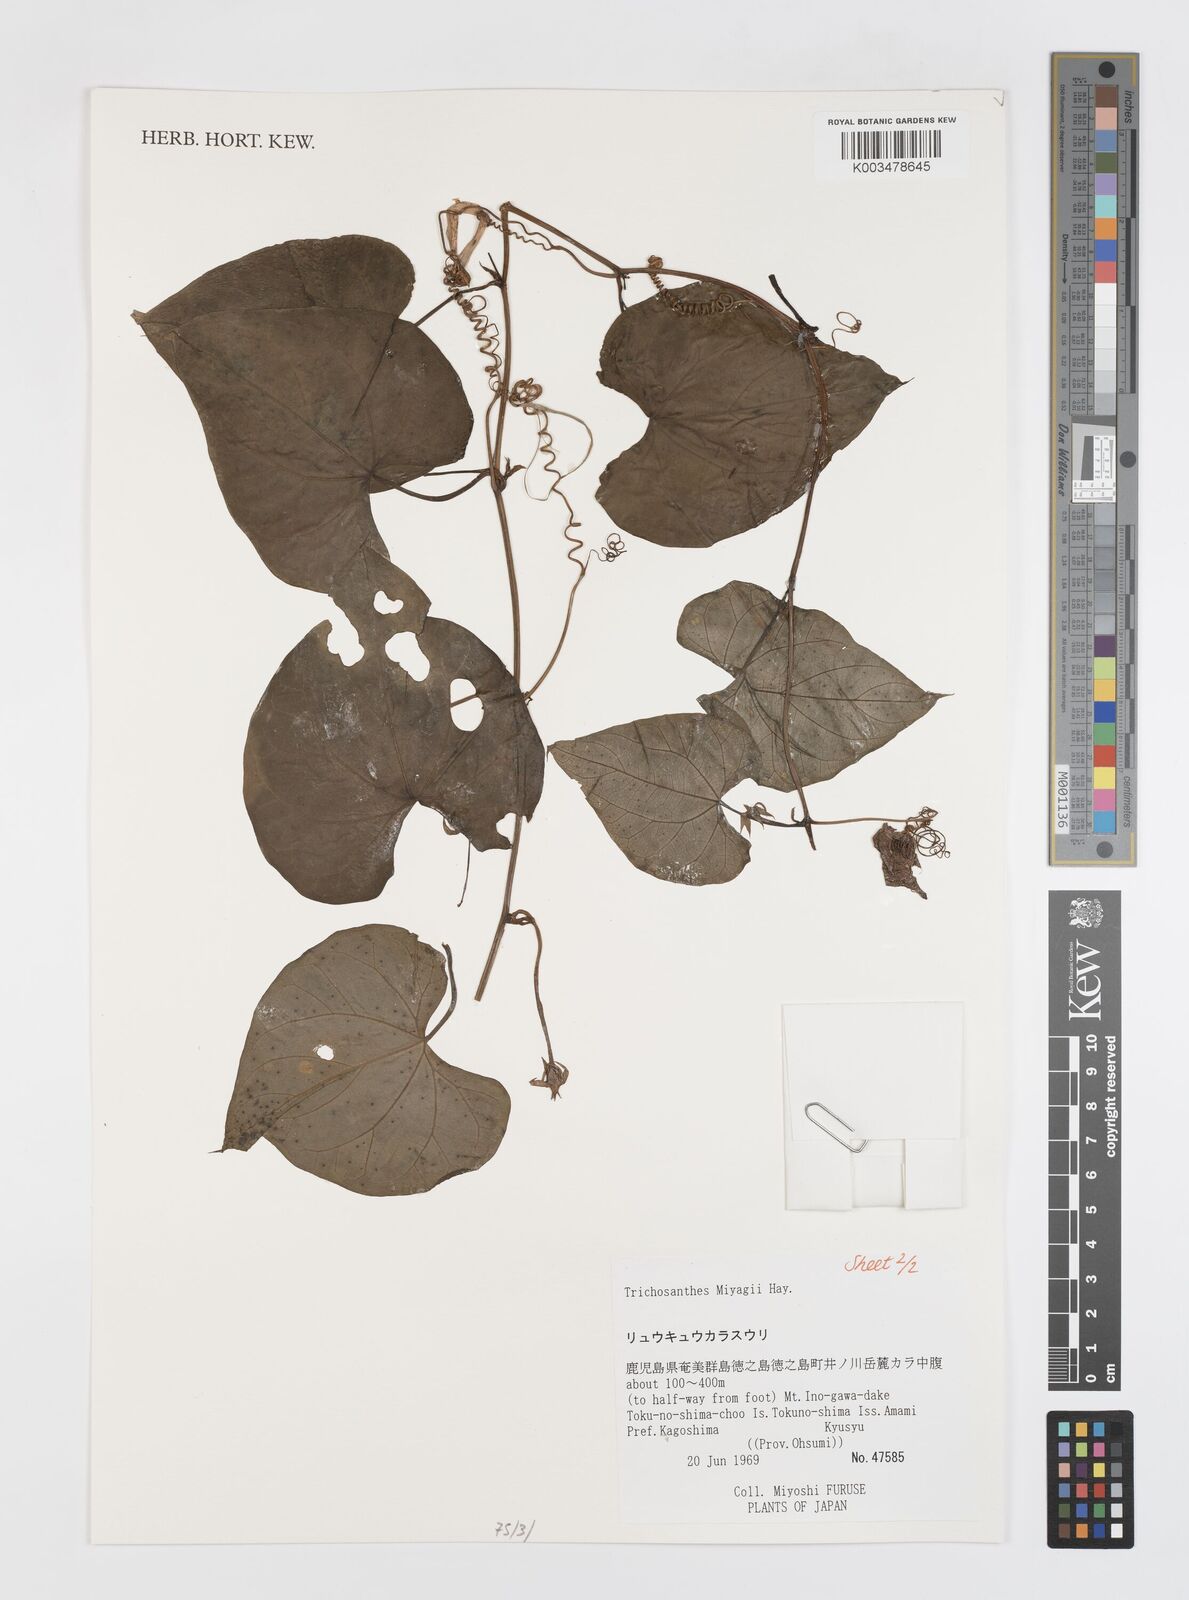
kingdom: Plantae
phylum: Tracheophyta
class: Magnoliopsida
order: Cucurbitales
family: Cucurbitaceae
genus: Trichosanthes
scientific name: Trichosanthes miyagii
